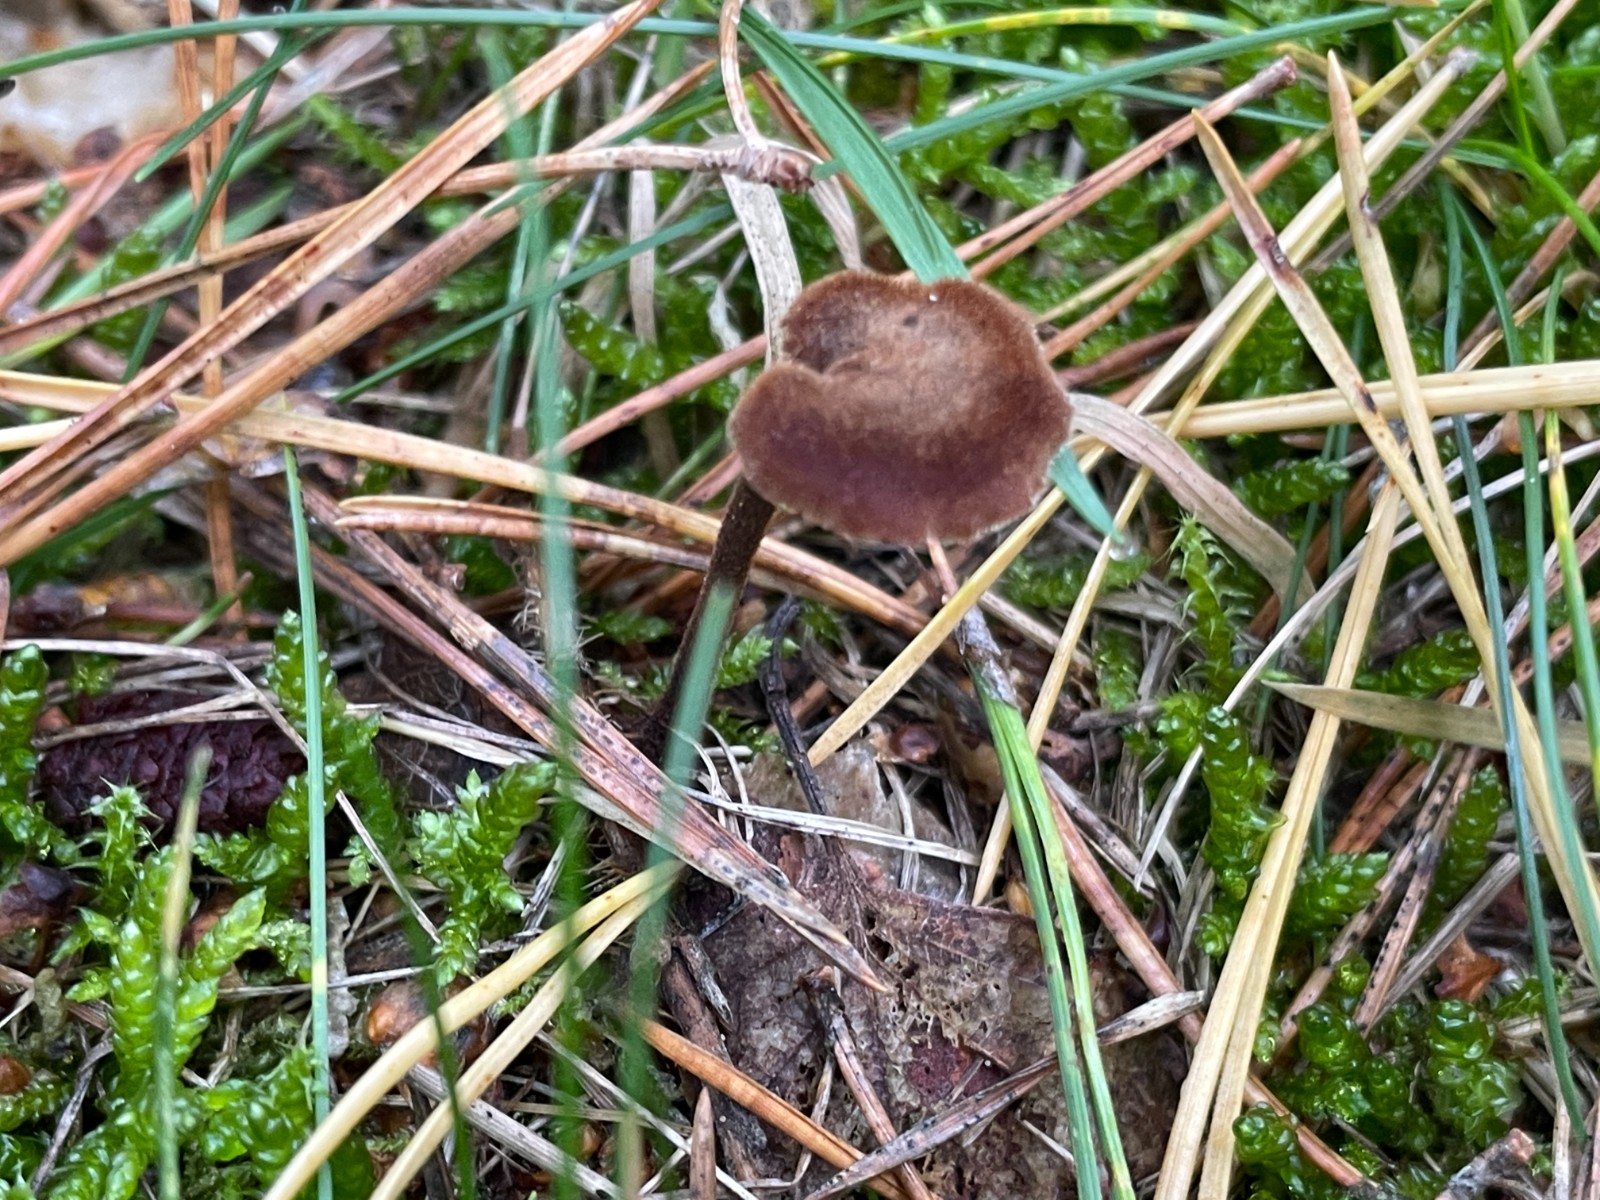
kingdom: Fungi
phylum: Basidiomycota
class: Agaricomycetes
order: Russulales
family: Auriscalpiaceae
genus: Auriscalpium
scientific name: Auriscalpium vulgare
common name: koglepigsvamp
